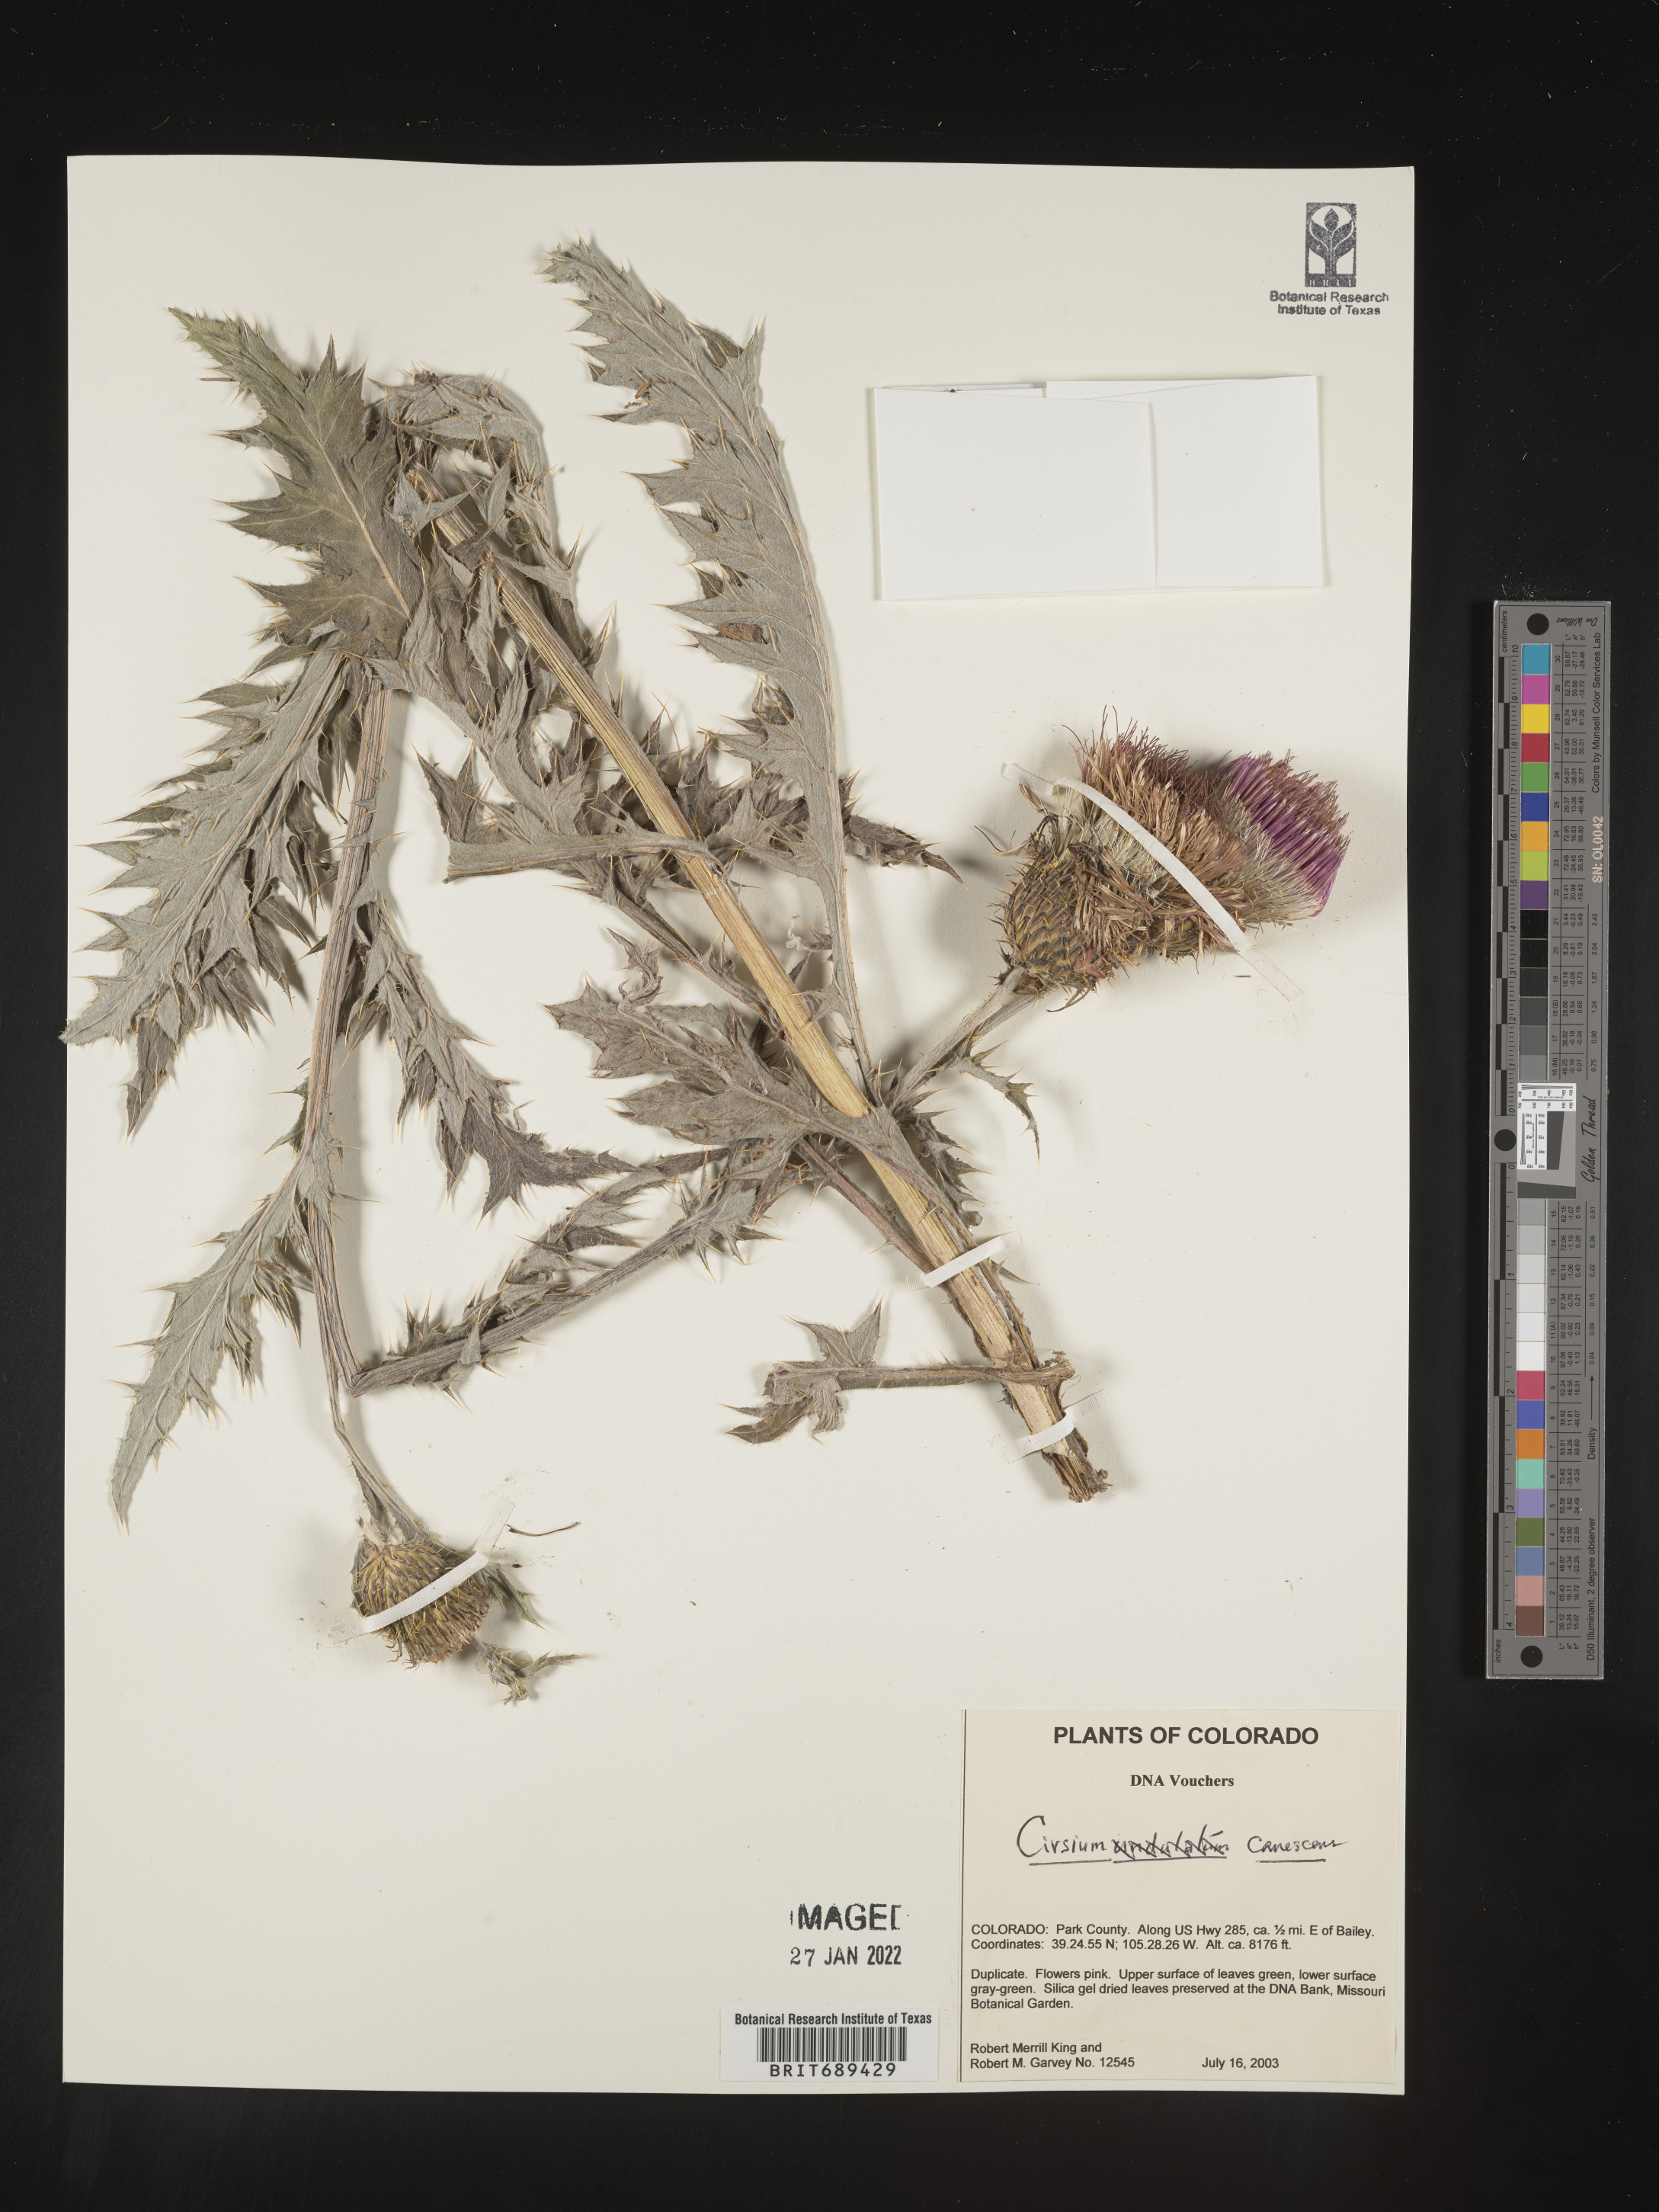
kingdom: Plantae
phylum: Tracheophyta
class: Magnoliopsida
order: Asterales
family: Asteraceae
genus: Cirsium
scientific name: Cirsium canescens
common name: Prairie thistle
